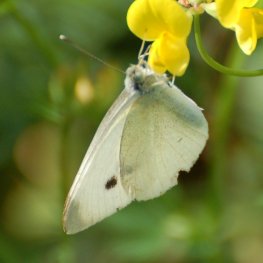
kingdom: Animalia
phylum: Arthropoda
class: Insecta
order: Lepidoptera
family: Pieridae
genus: Pieris
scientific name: Pieris rapae
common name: Cabbage White
